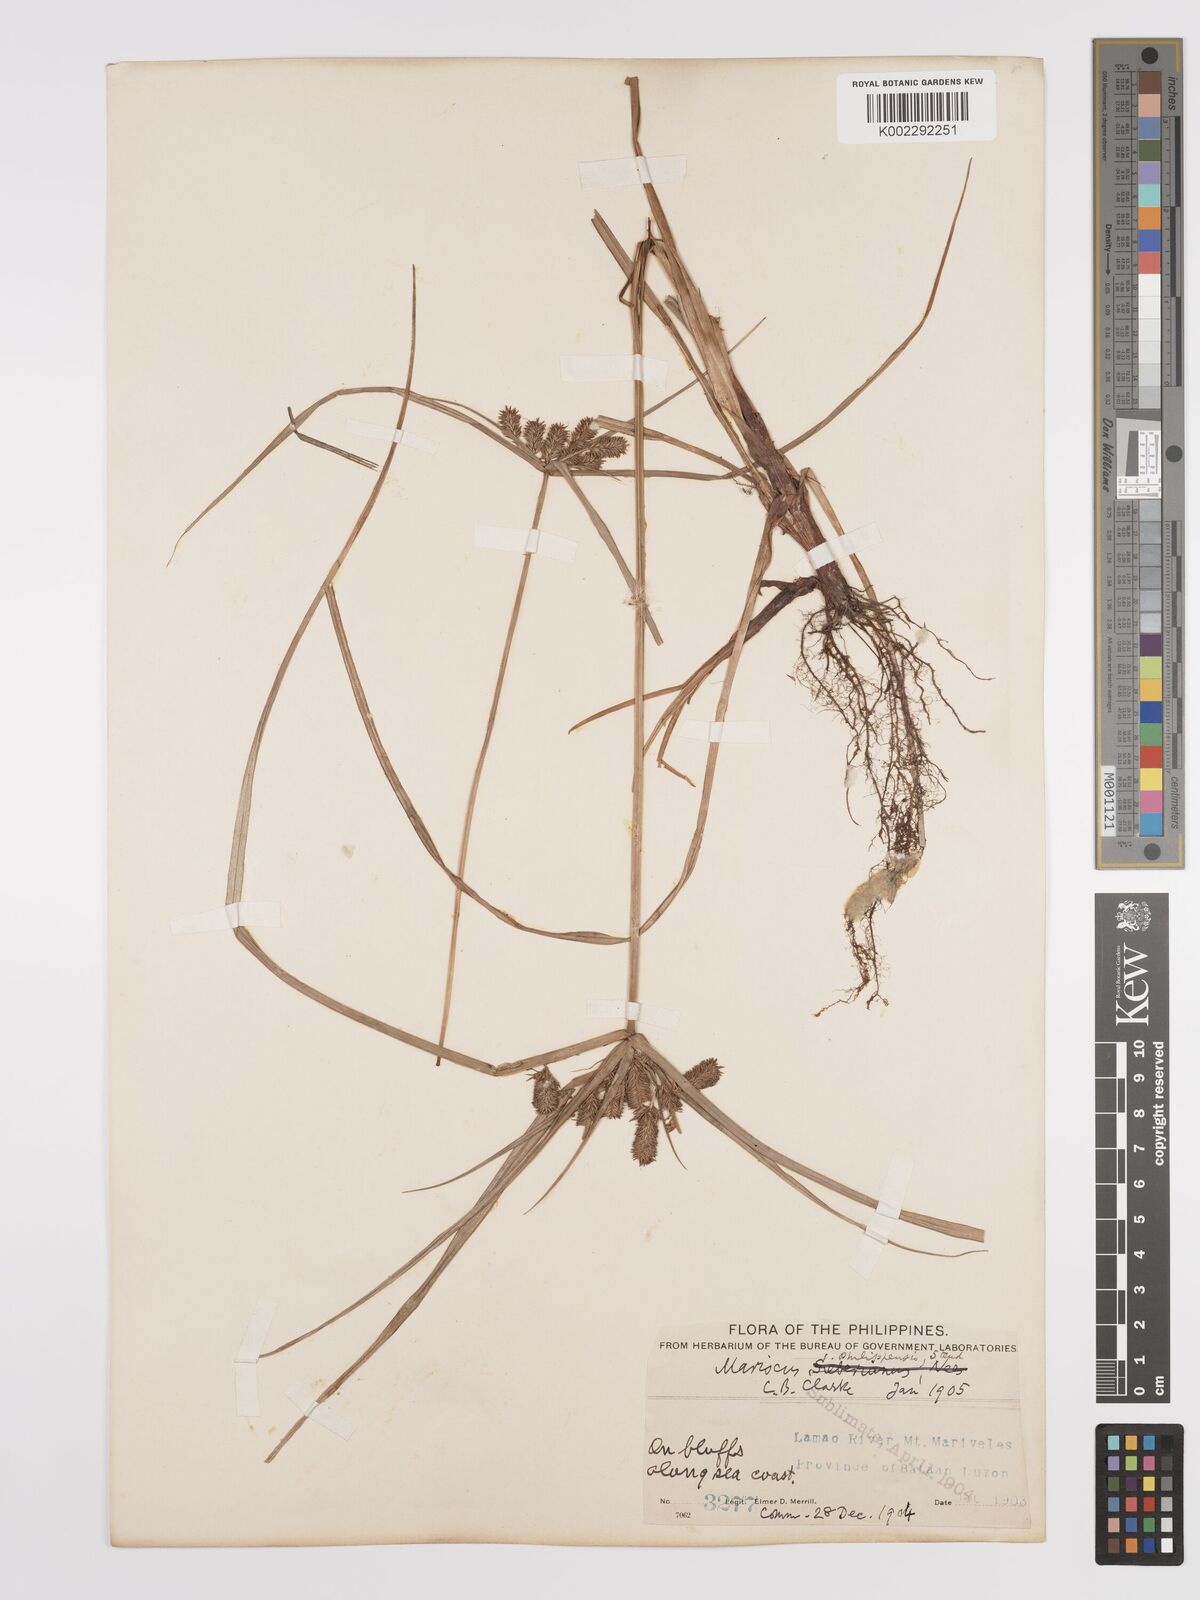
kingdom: Plantae
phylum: Tracheophyta
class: Liliopsida
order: Poales
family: Cyperaceae
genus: Cyperus
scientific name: Cyperus cyperoides
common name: Pacific island flat sedge
